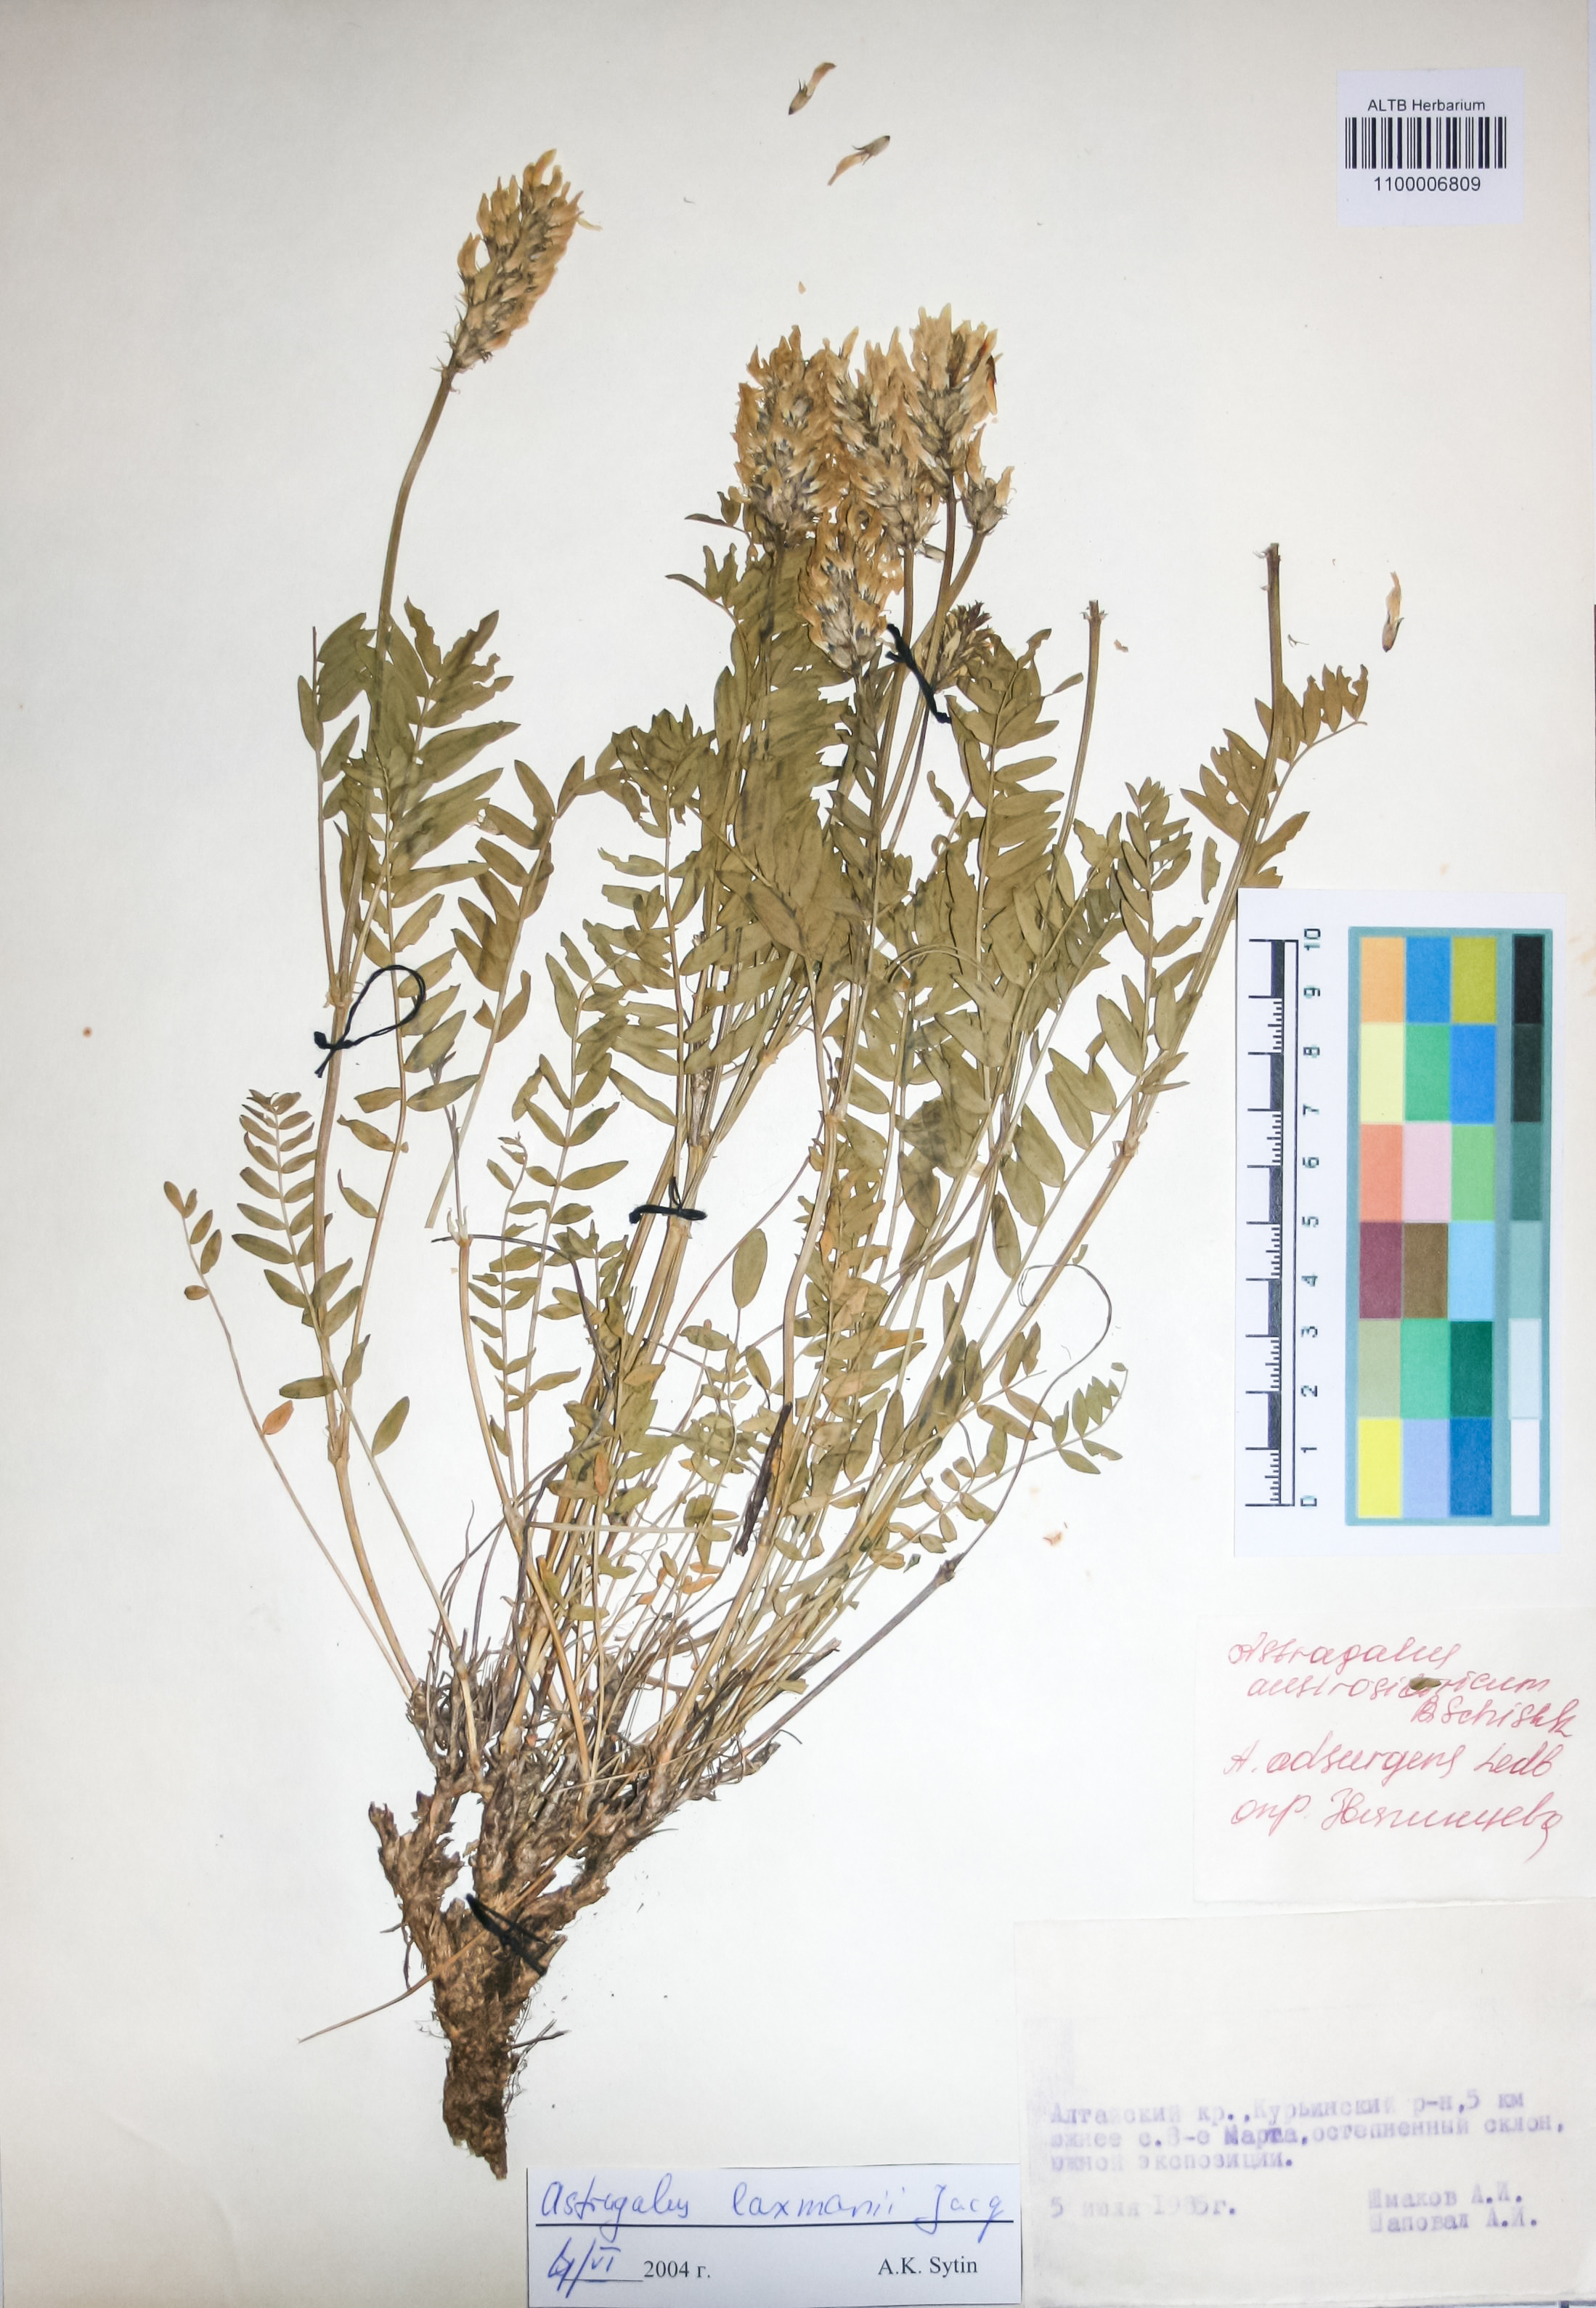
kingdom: Plantae
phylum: Tracheophyta
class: Magnoliopsida
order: Fabales
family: Fabaceae
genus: Astragalus
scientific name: Astragalus laxmannii
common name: Laxmann's milk-vetch
